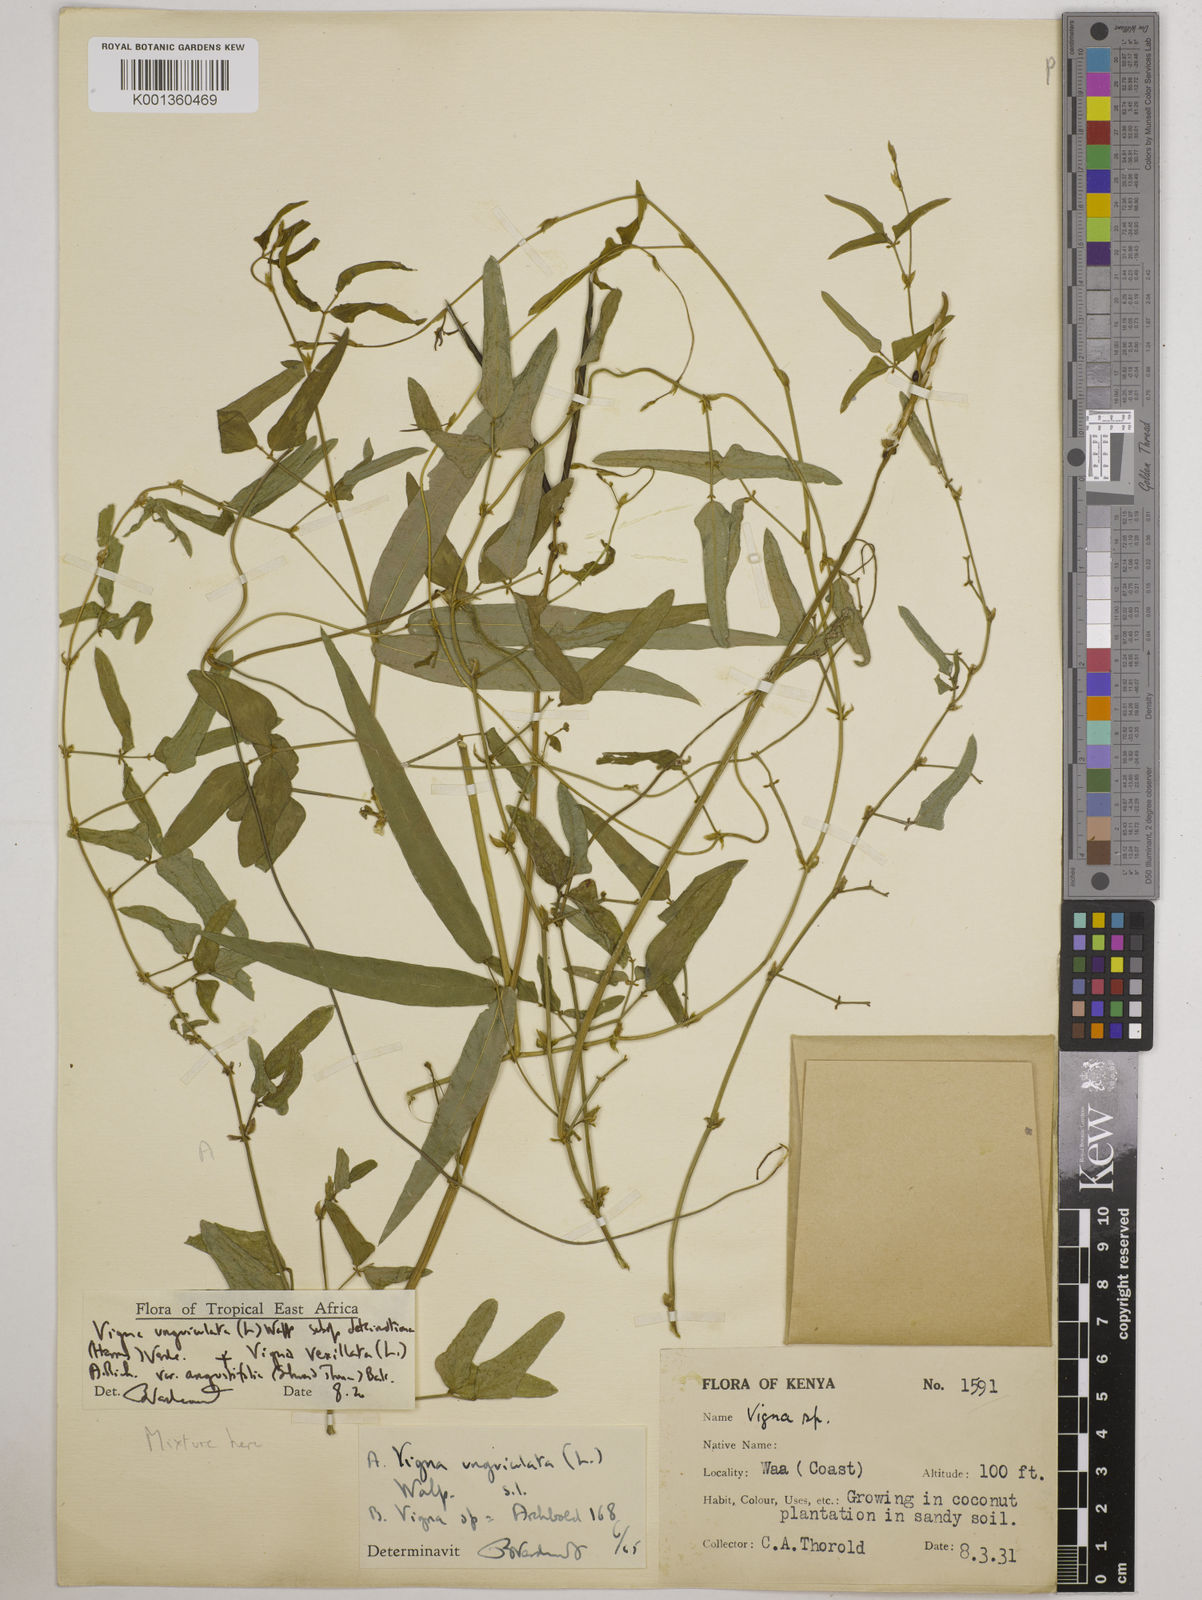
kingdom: Plantae
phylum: Tracheophyta
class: Magnoliopsida
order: Fabales
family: Fabaceae
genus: Vigna
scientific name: Vigna
